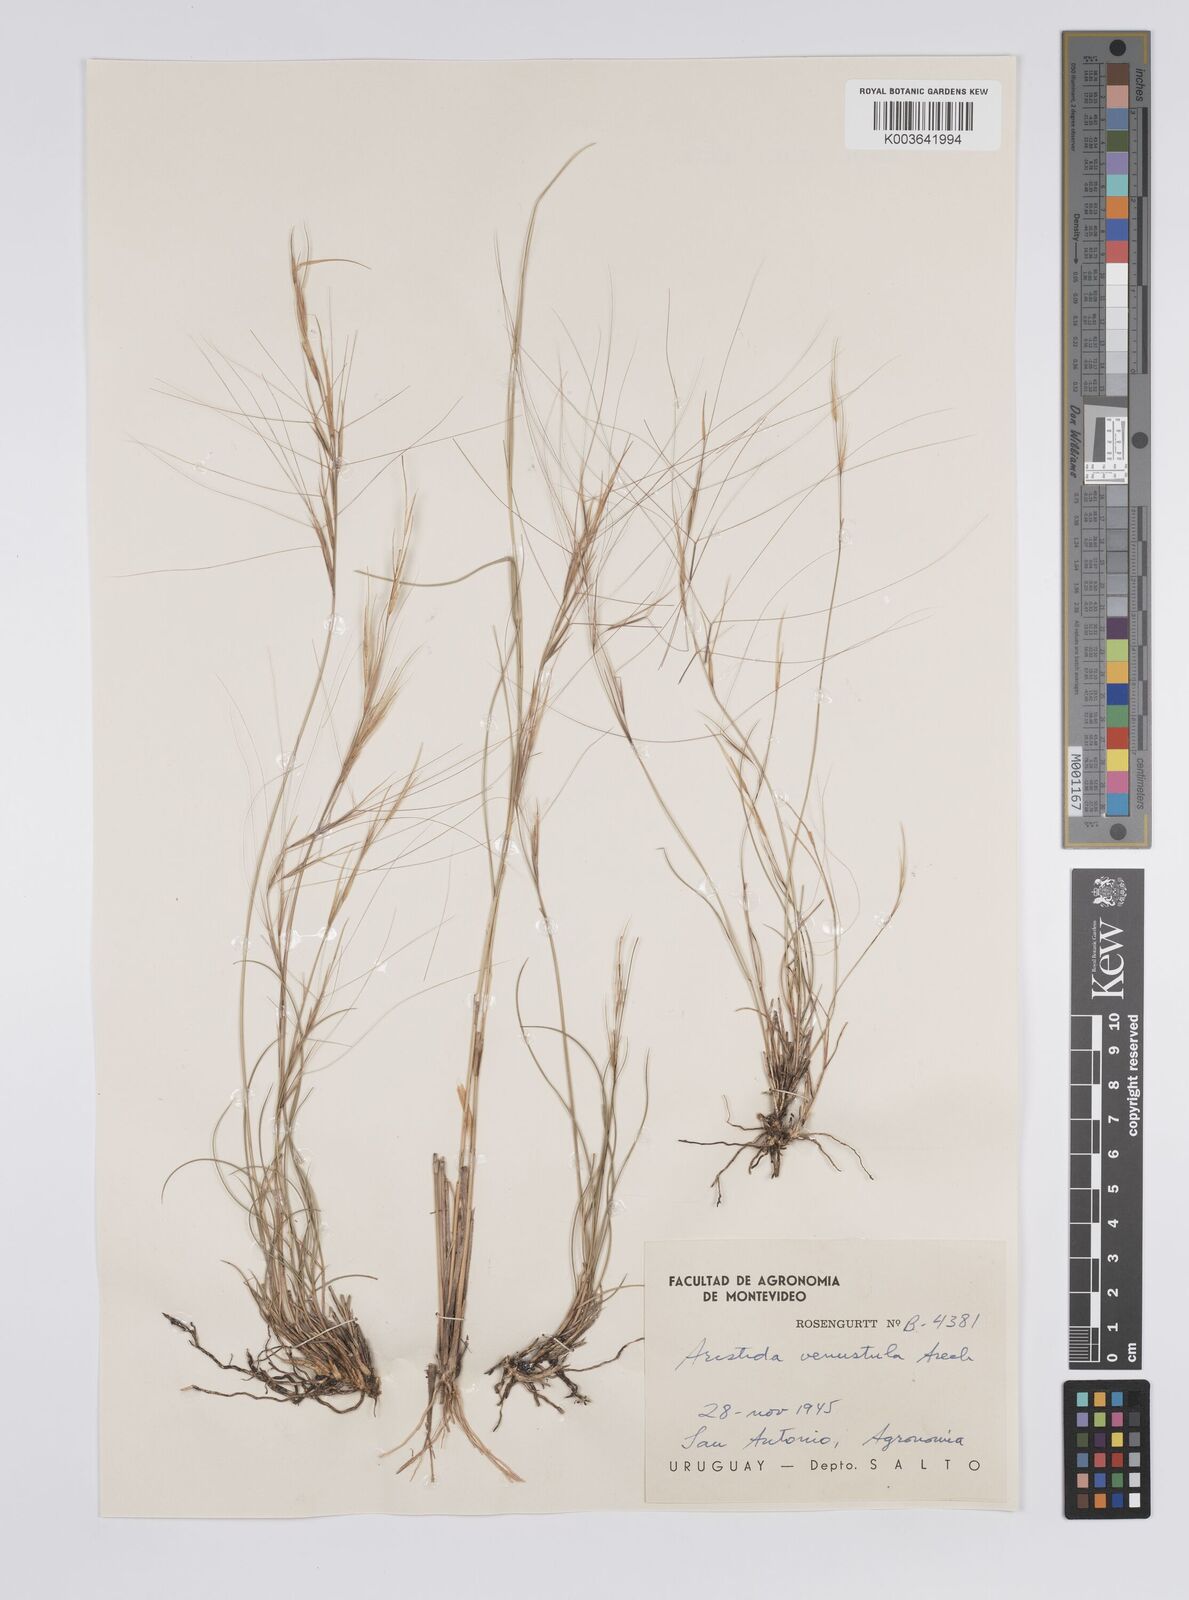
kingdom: Plantae
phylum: Tracheophyta
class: Liliopsida
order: Poales
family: Poaceae
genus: Aristida
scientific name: Aristida venustula
